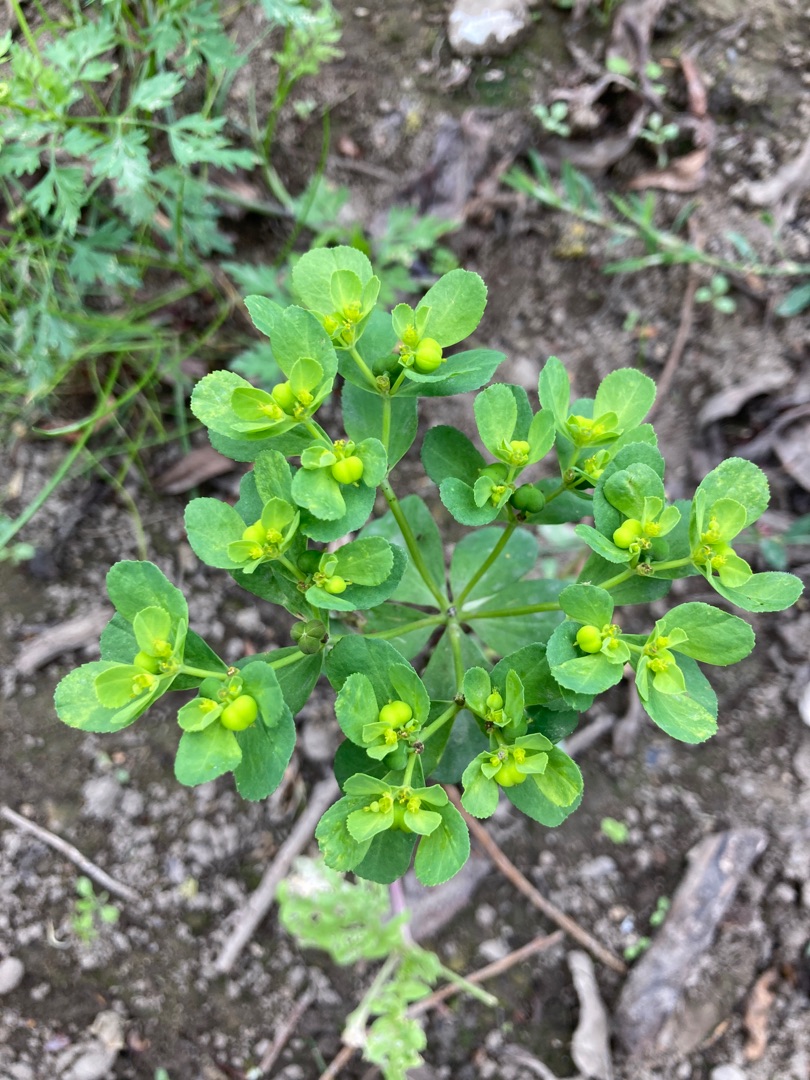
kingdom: Plantae
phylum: Tracheophyta
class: Magnoliopsida
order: Malpighiales
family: Euphorbiaceae
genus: Euphorbia
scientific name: Euphorbia helioscopia
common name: Skærm-vortemælk
